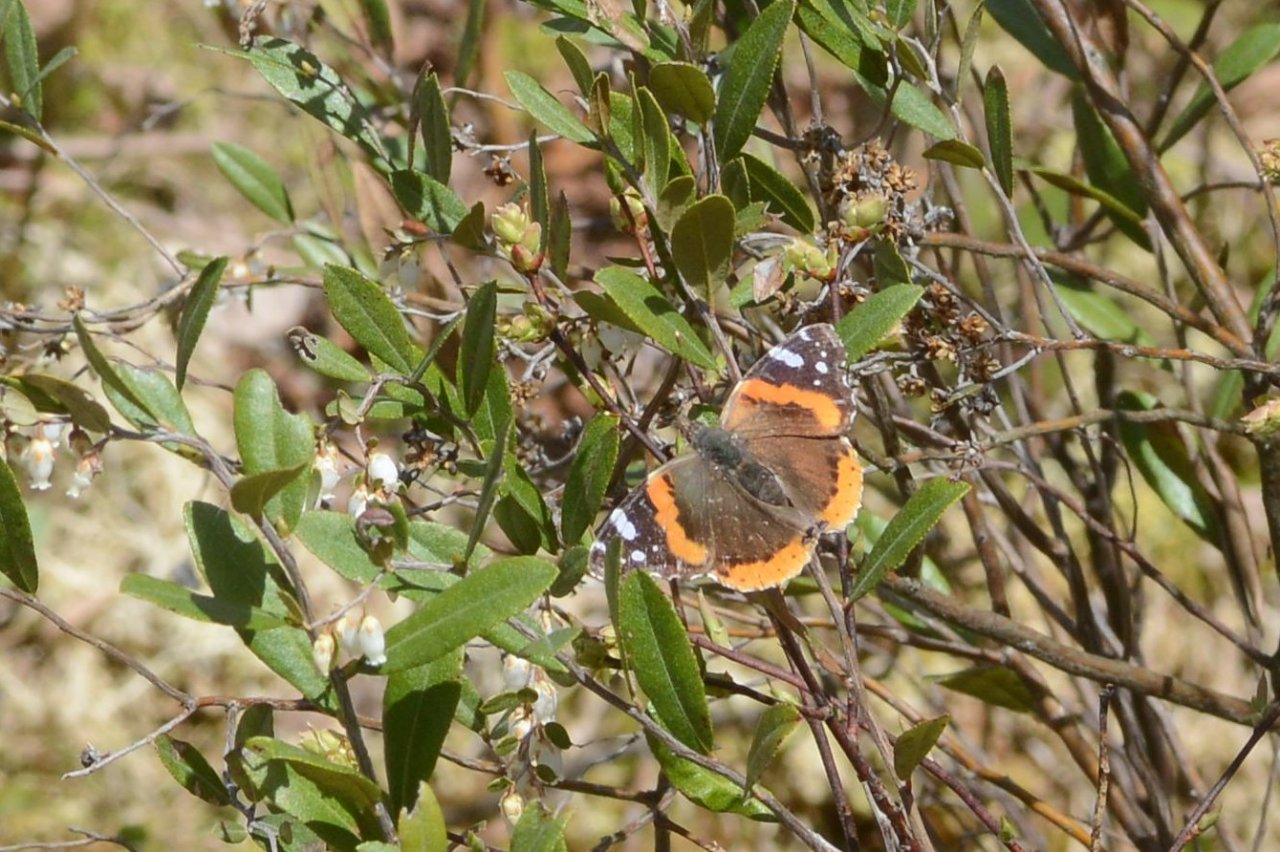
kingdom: Animalia
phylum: Arthropoda
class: Insecta
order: Lepidoptera
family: Nymphalidae
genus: Vanessa
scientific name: Vanessa atalanta
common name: Red Admiral
